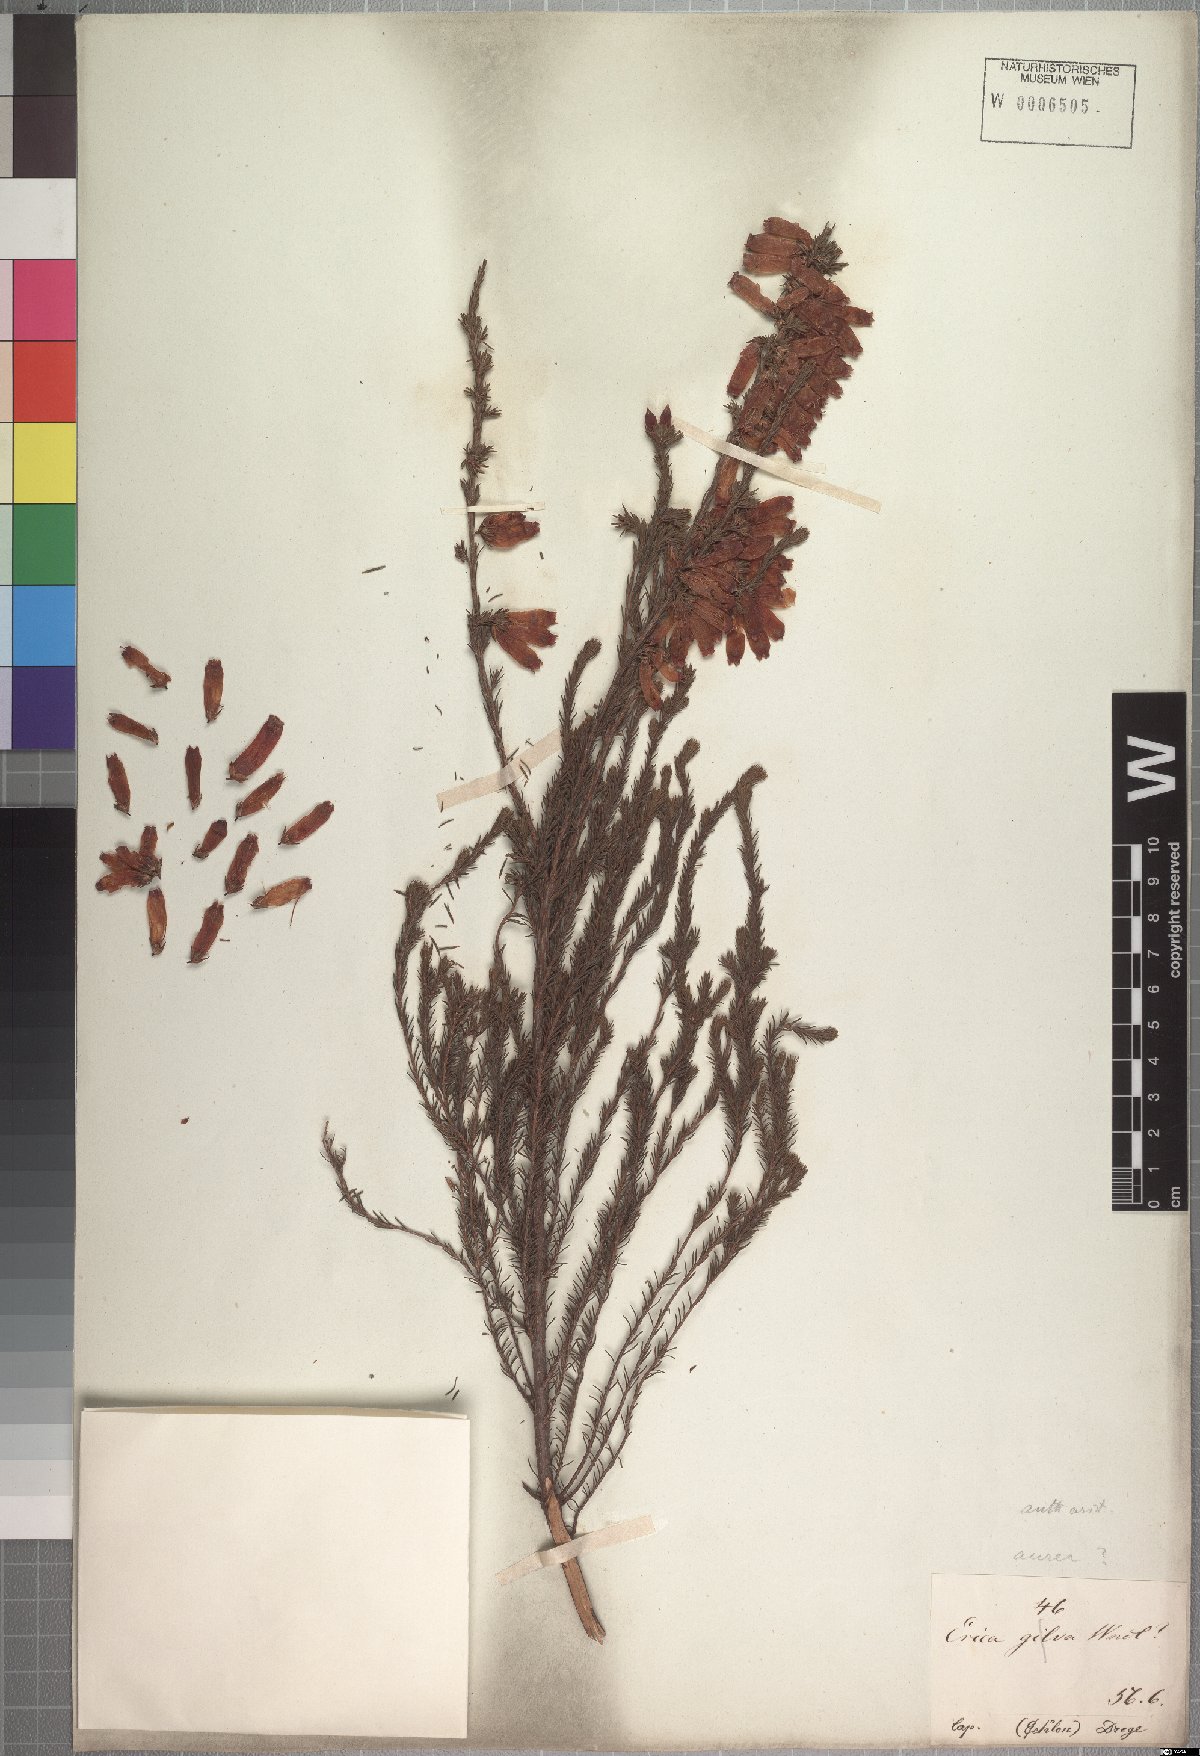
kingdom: Plantae
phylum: Tracheophyta
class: Magnoliopsida
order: Ericales
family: Ericaceae
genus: Erica
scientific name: Erica foliacea
